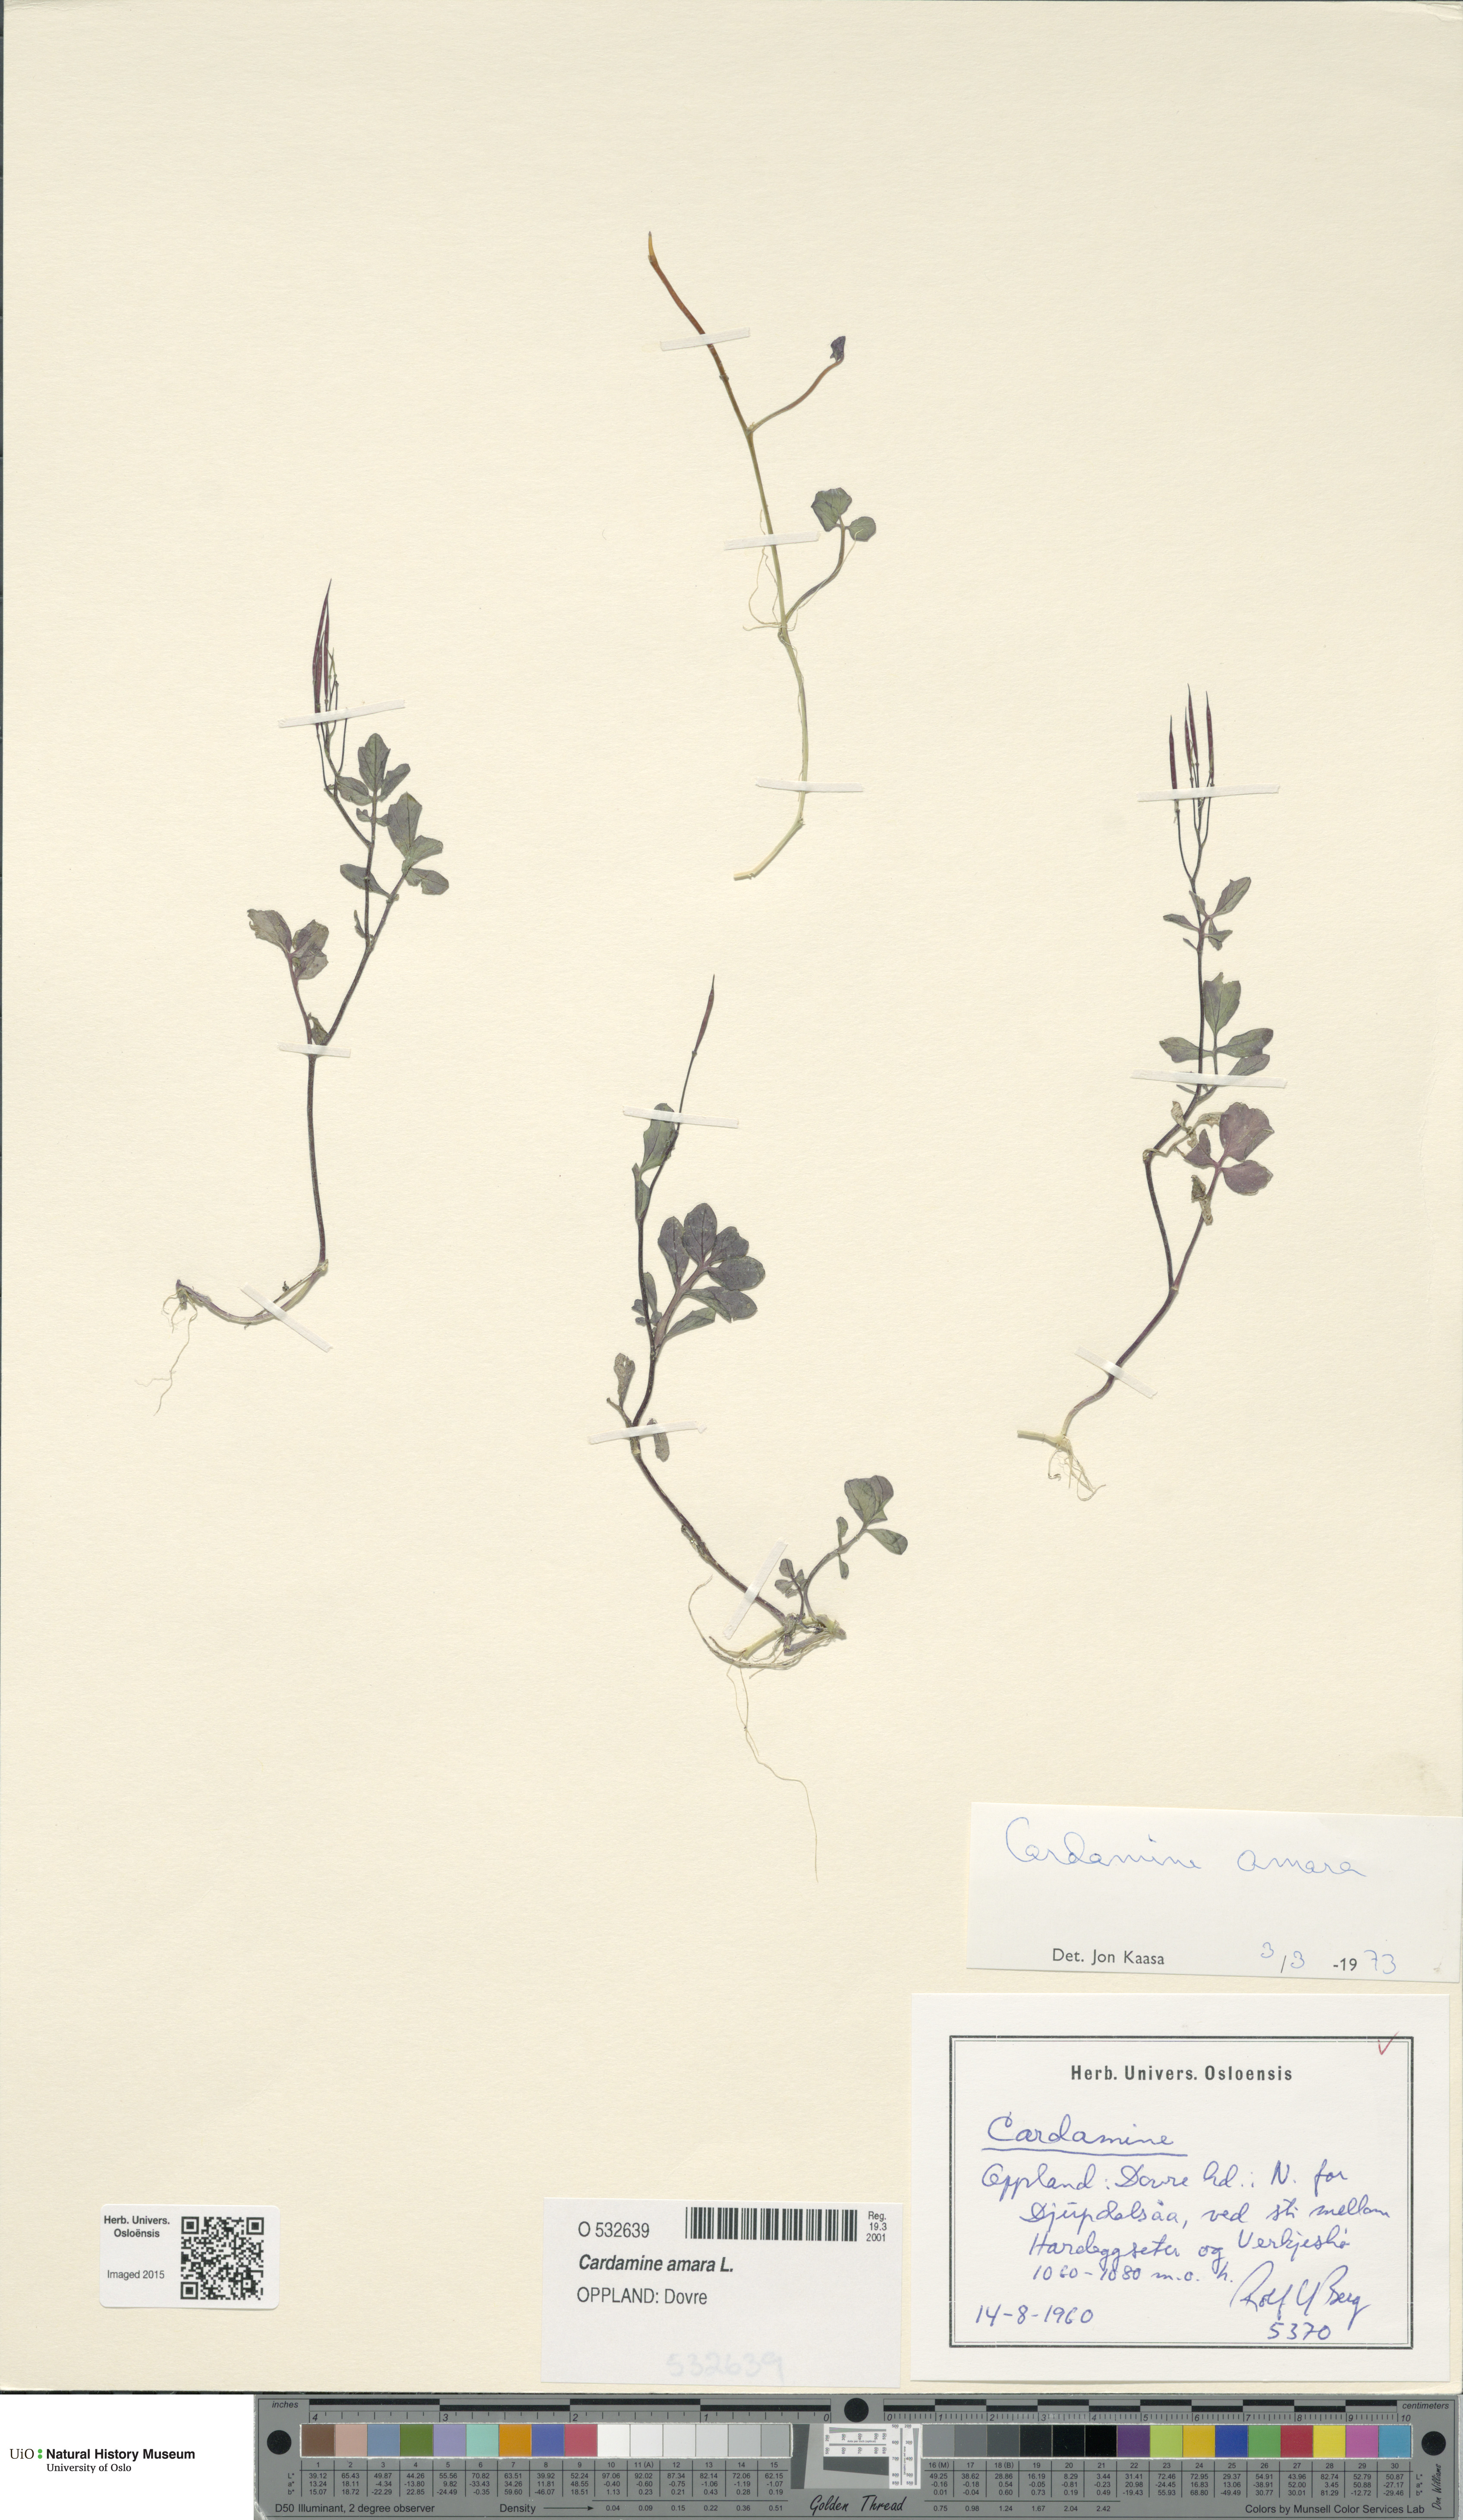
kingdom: Plantae
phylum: Tracheophyta
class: Magnoliopsida
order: Brassicales
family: Brassicaceae
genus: Cardamine
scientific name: Cardamine amara
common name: Large bitter-cress
